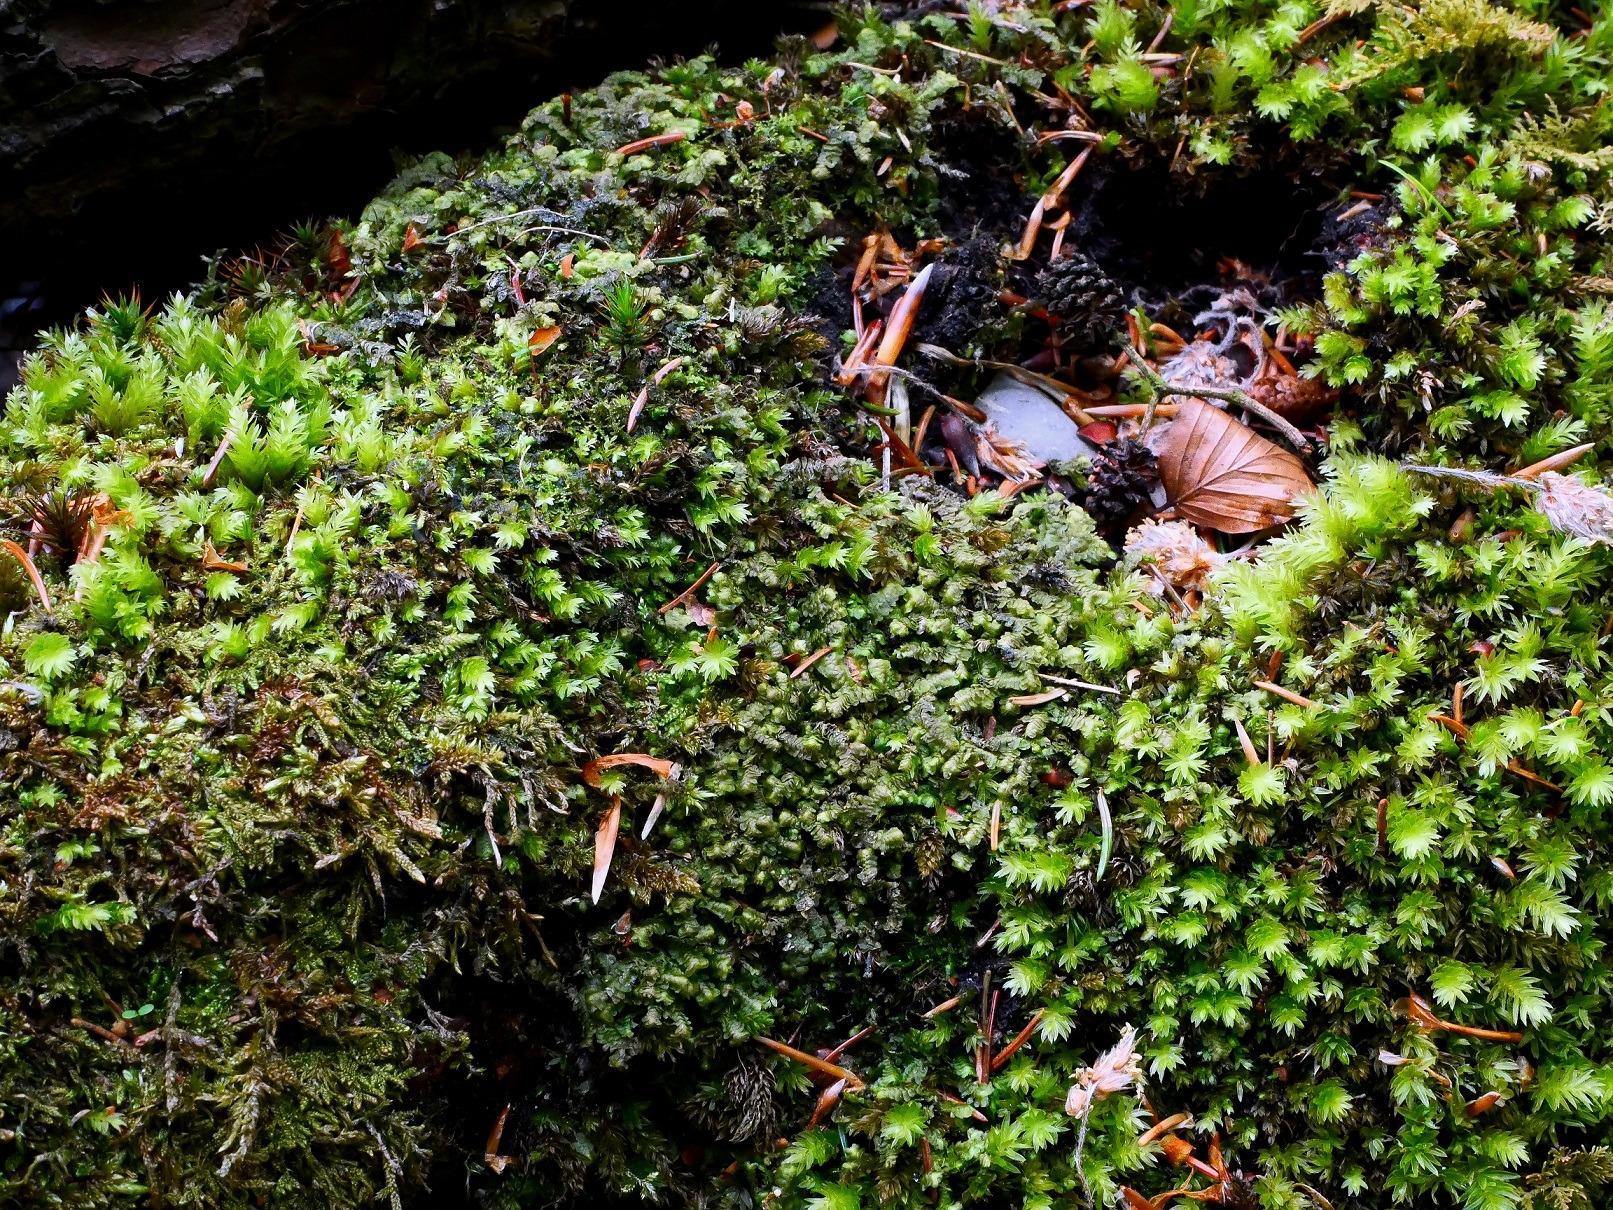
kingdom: Plantae
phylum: Marchantiophyta
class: Jungermanniopsida
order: Jungermanniales
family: Lepidoziaceae
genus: Bazzania
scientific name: Bazzania trilobata
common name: Stor styltemos
